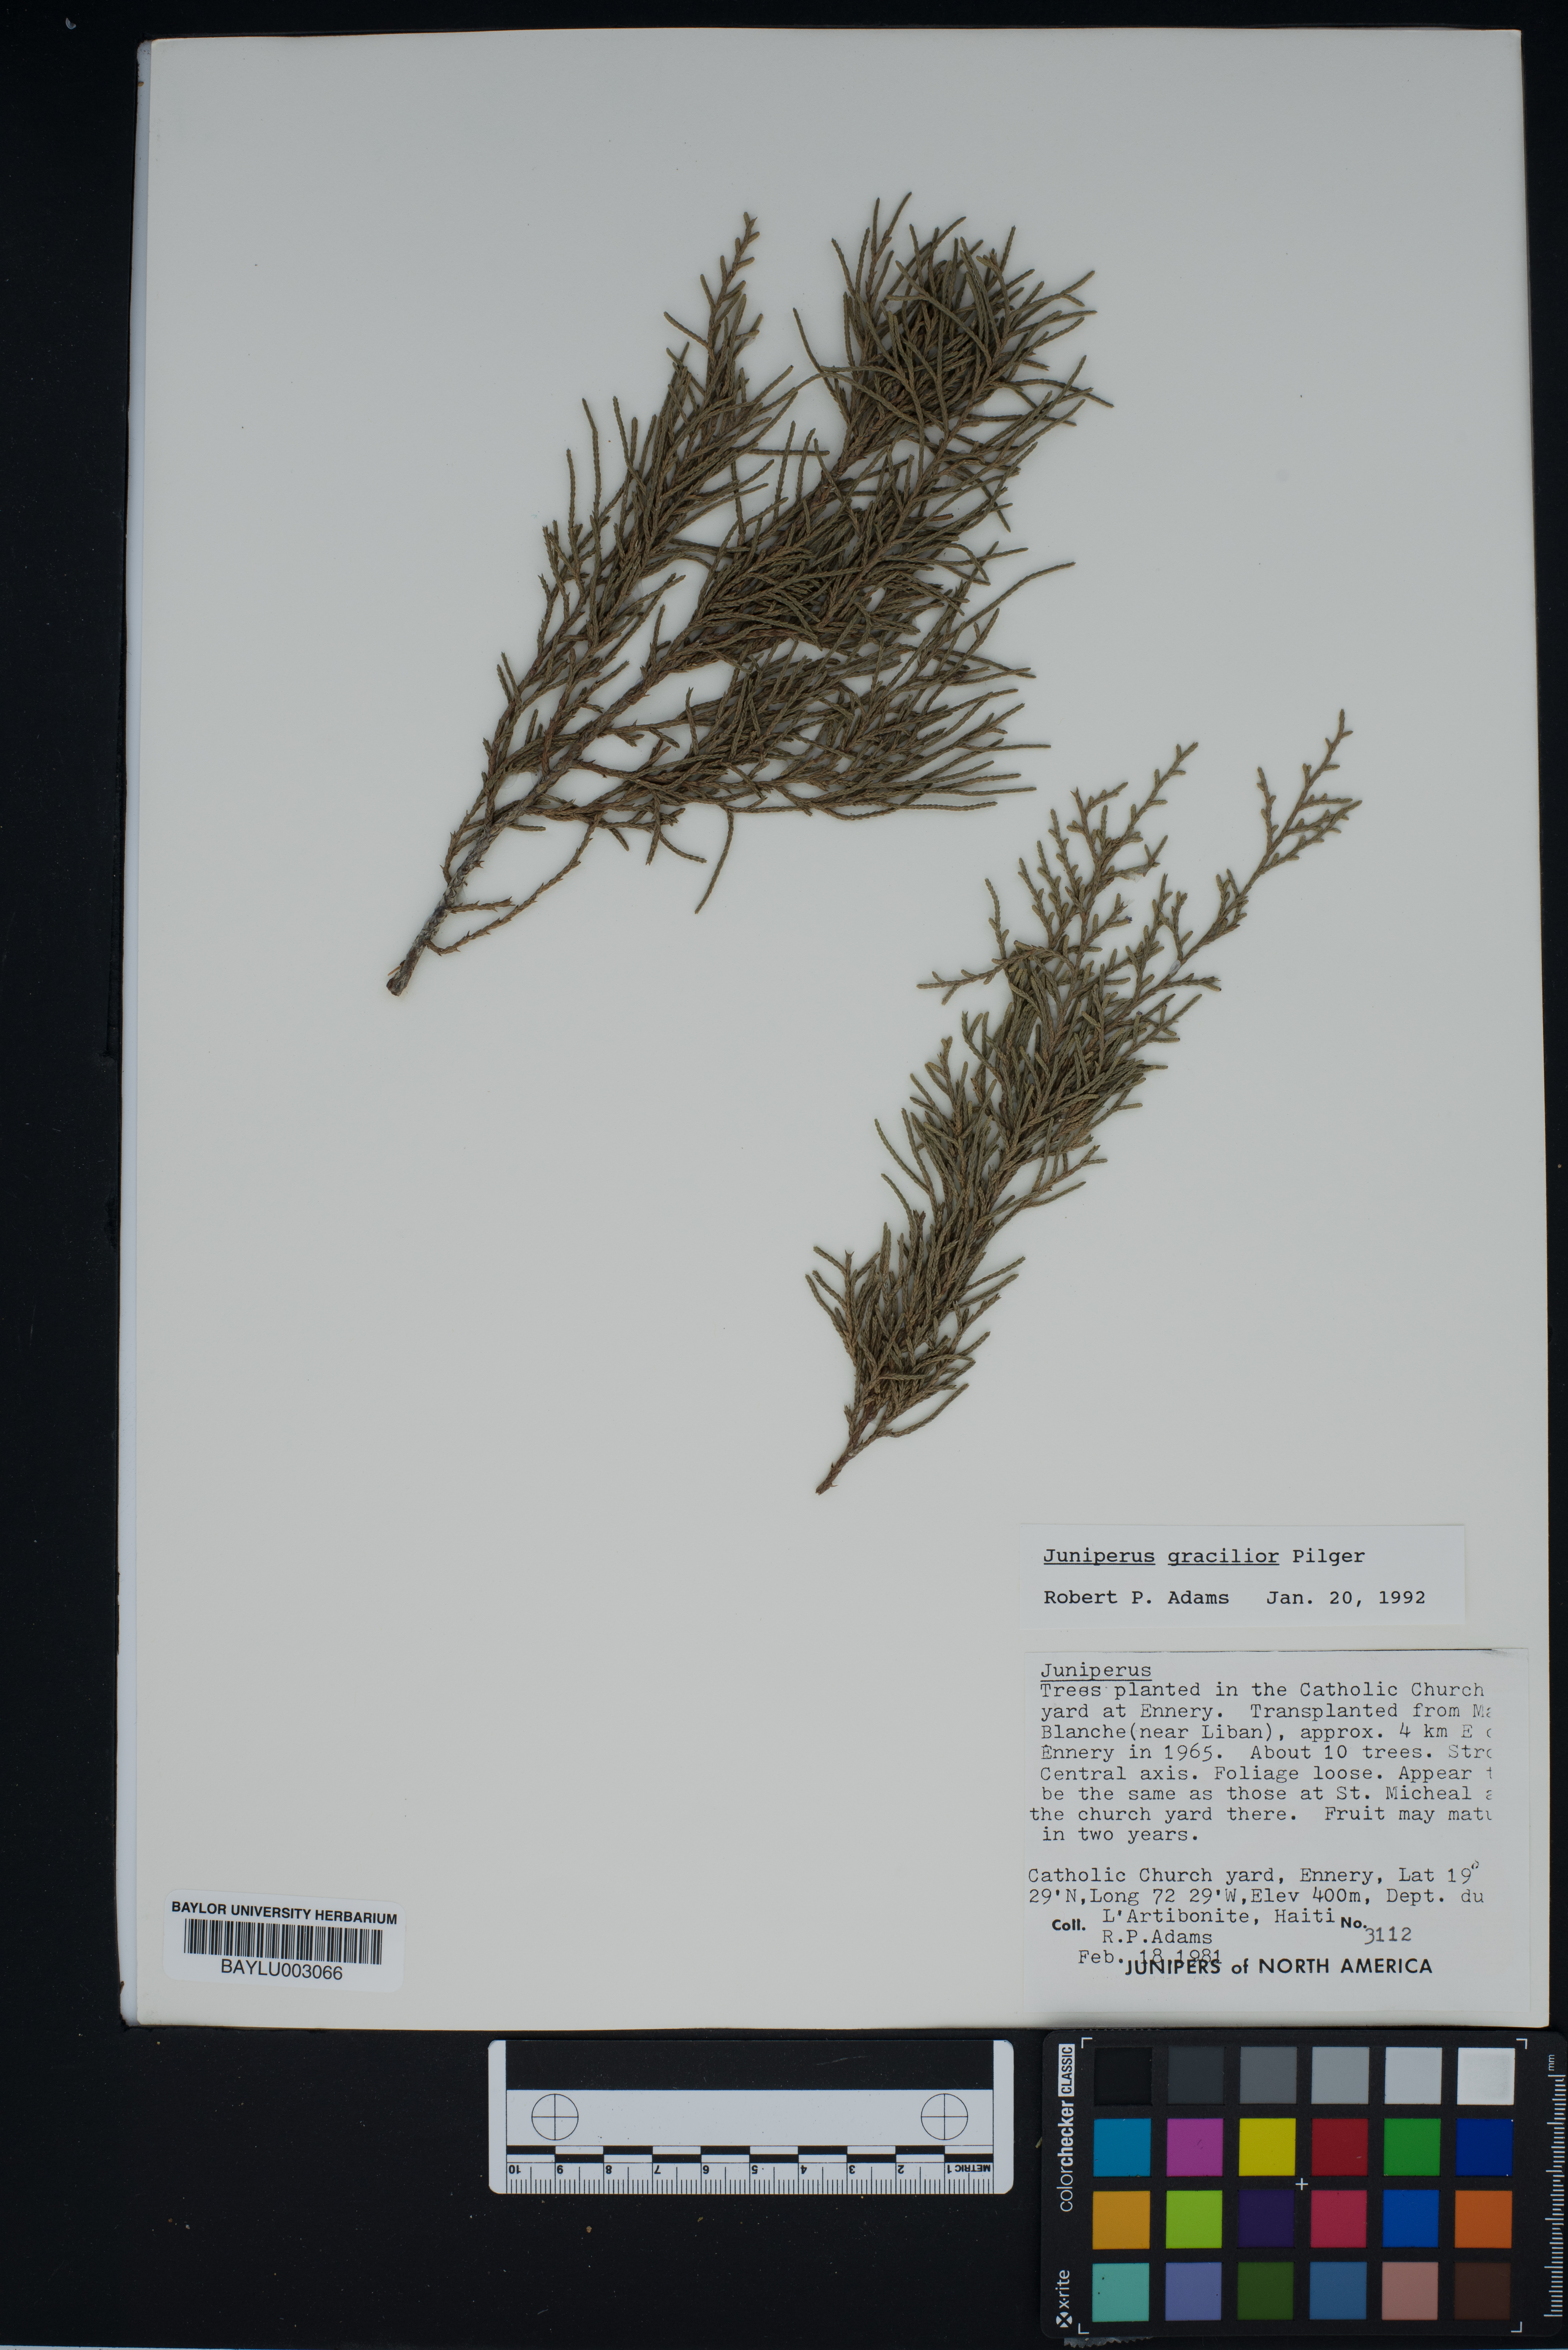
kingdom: Plantae
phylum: Tracheophyta
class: Pinopsida
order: Pinales
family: Cupressaceae
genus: Juniperus
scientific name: Juniperus gracilior
